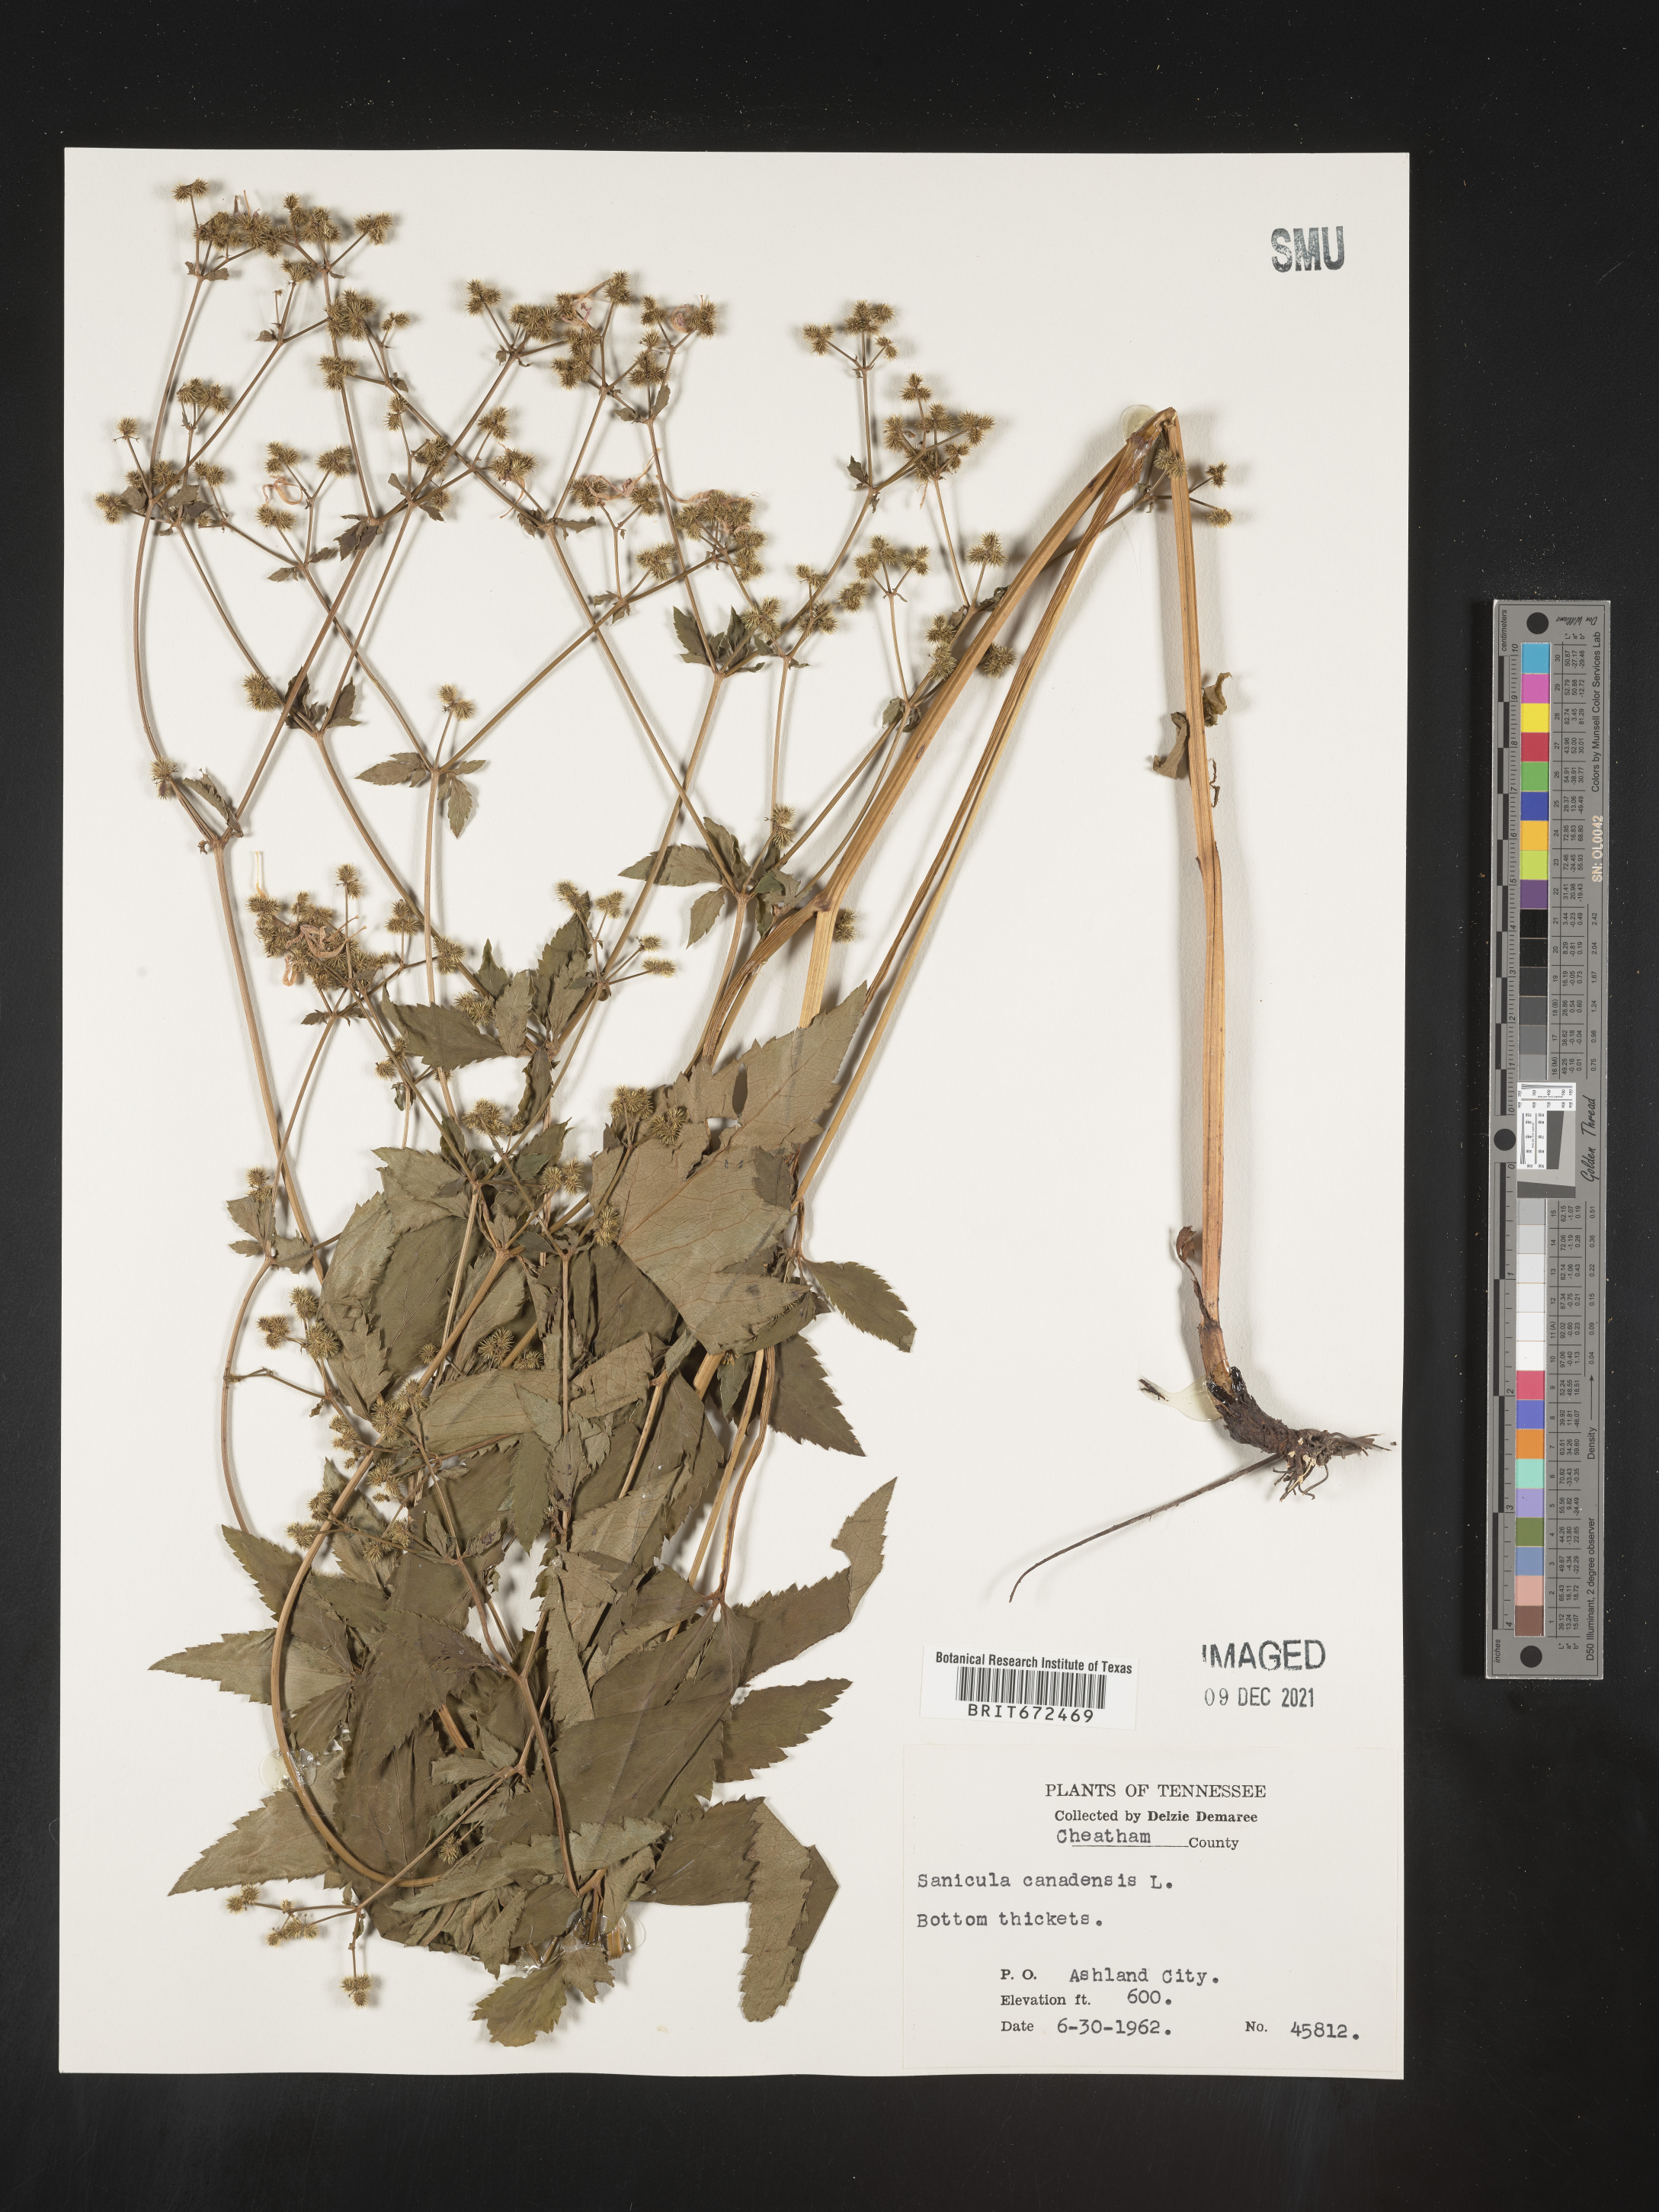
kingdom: Plantae
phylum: Tracheophyta
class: Magnoliopsida
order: Apiales
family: Apiaceae
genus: Sanicula
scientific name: Sanicula canadensis
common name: Canada sanicle
